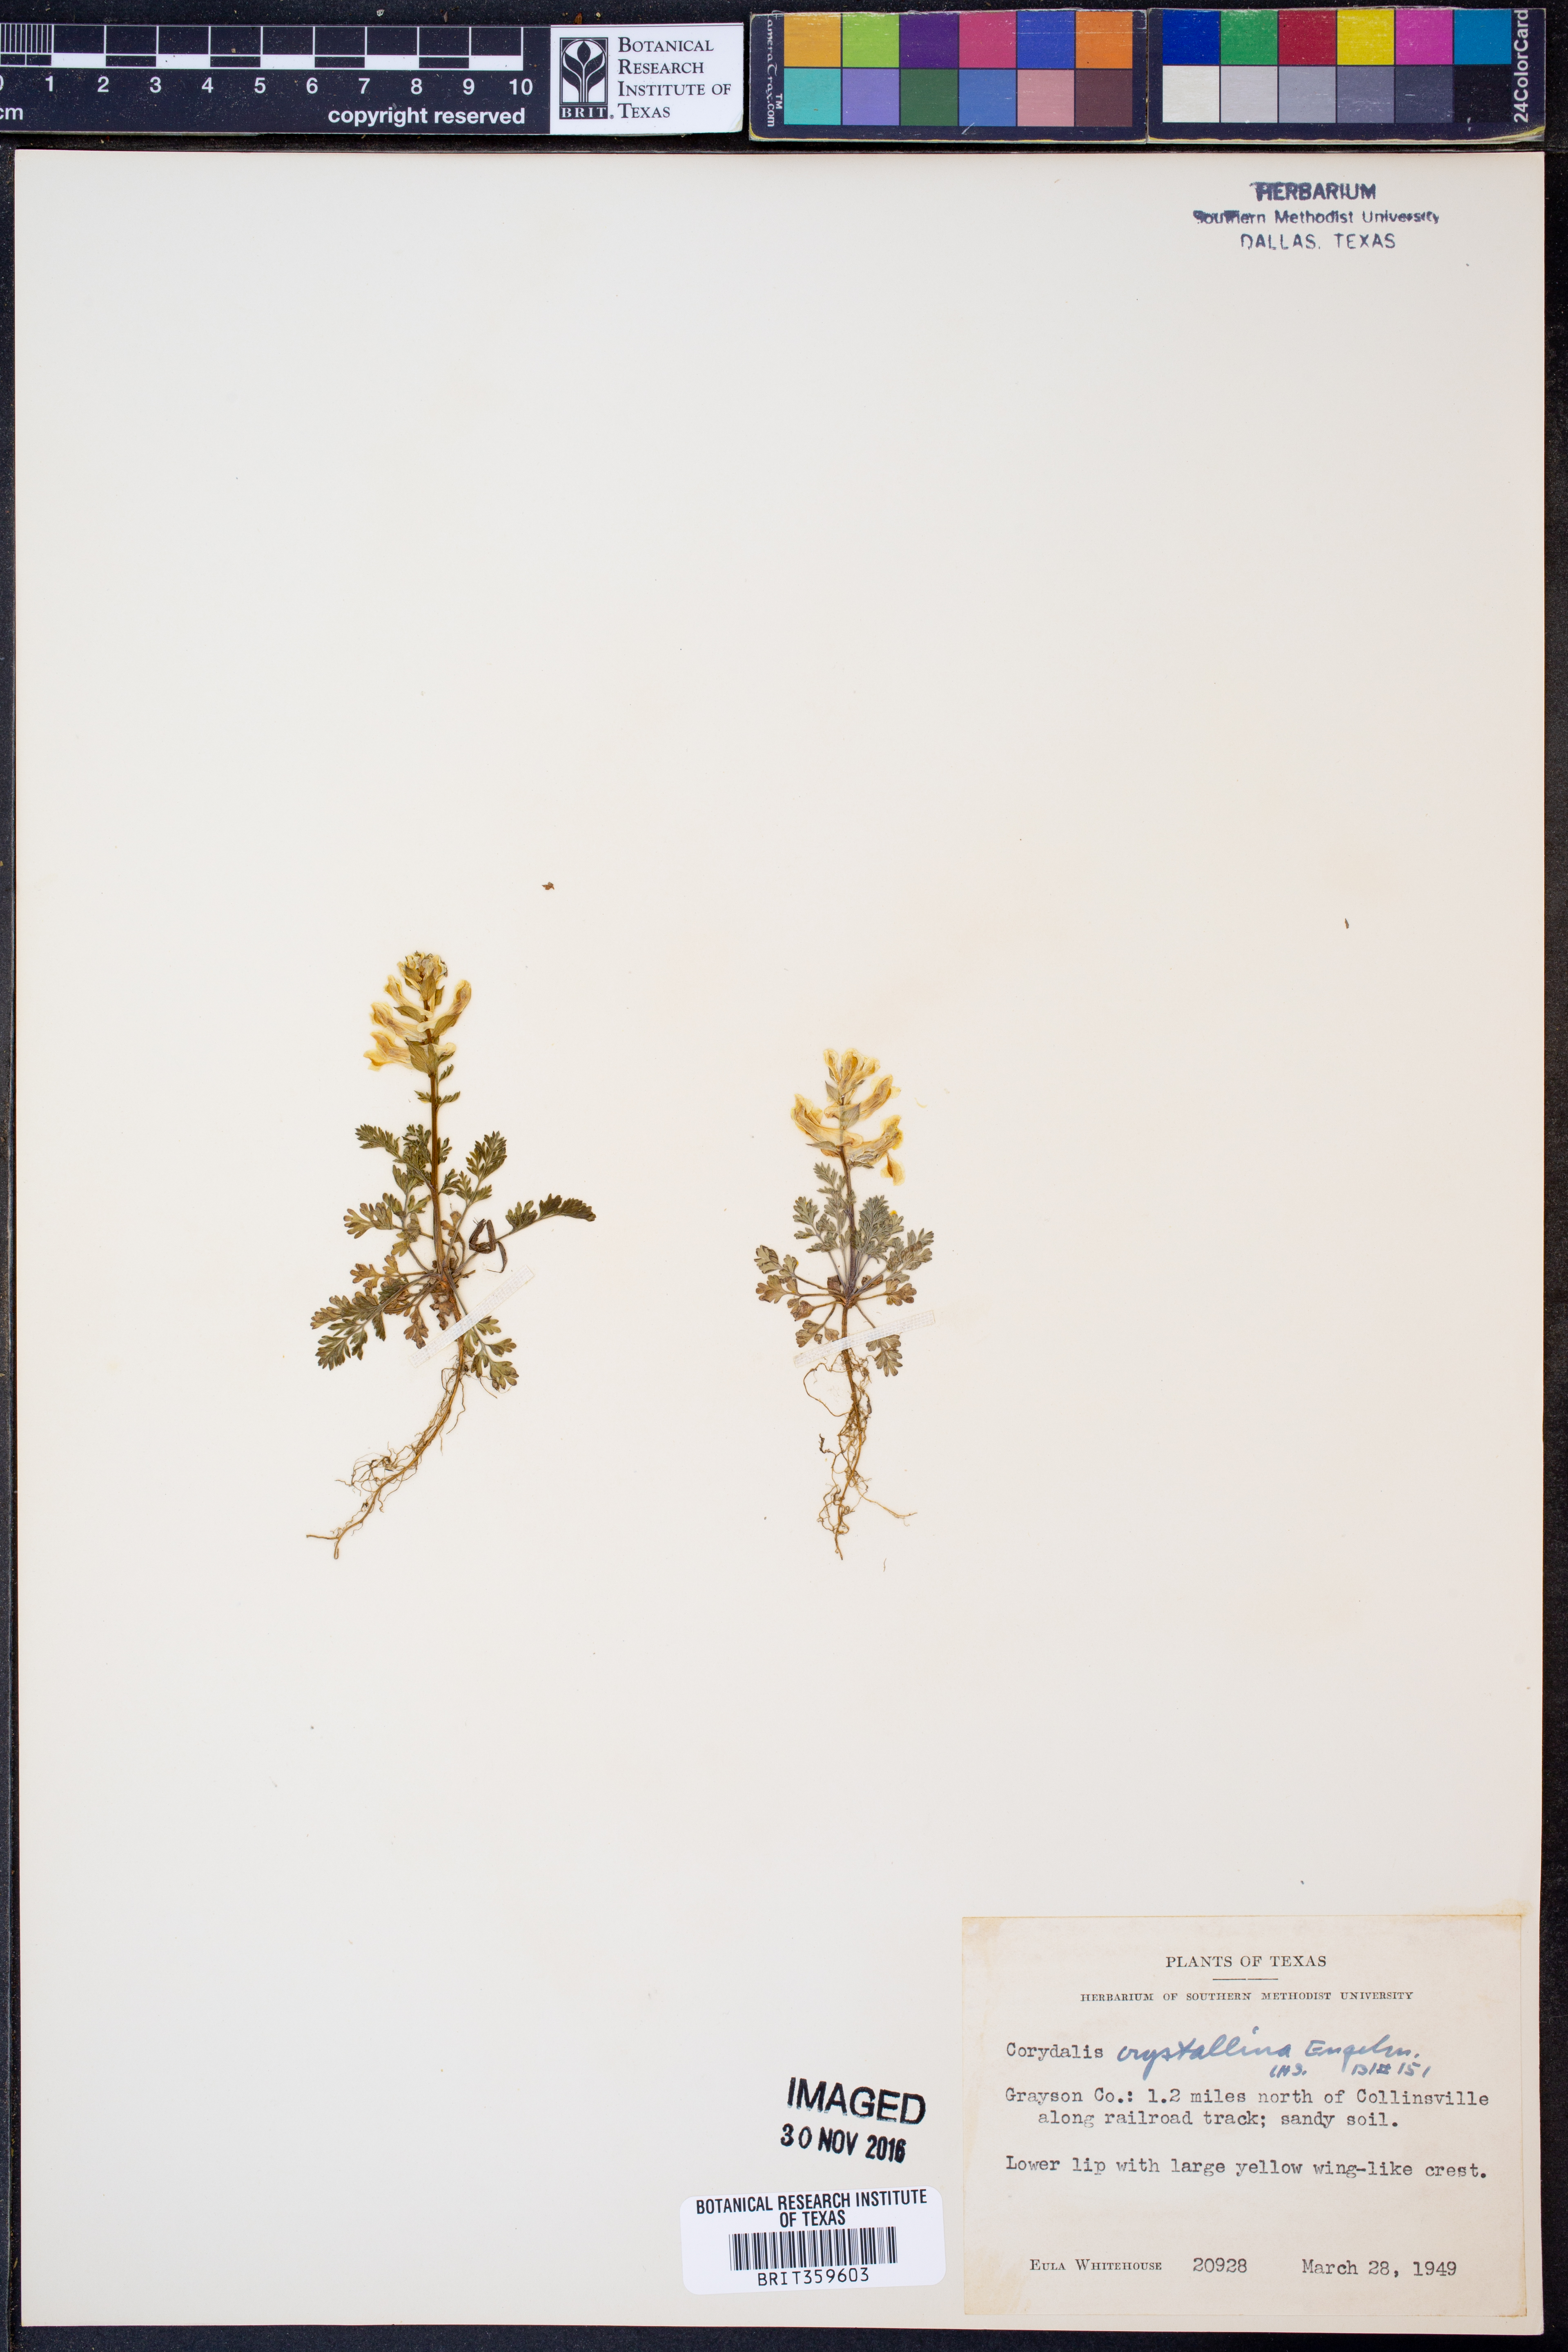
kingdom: Plantae
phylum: Tracheophyta
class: Magnoliopsida
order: Ranunculales
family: Papaveraceae
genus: Corydalis
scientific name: Corydalis crystallina
